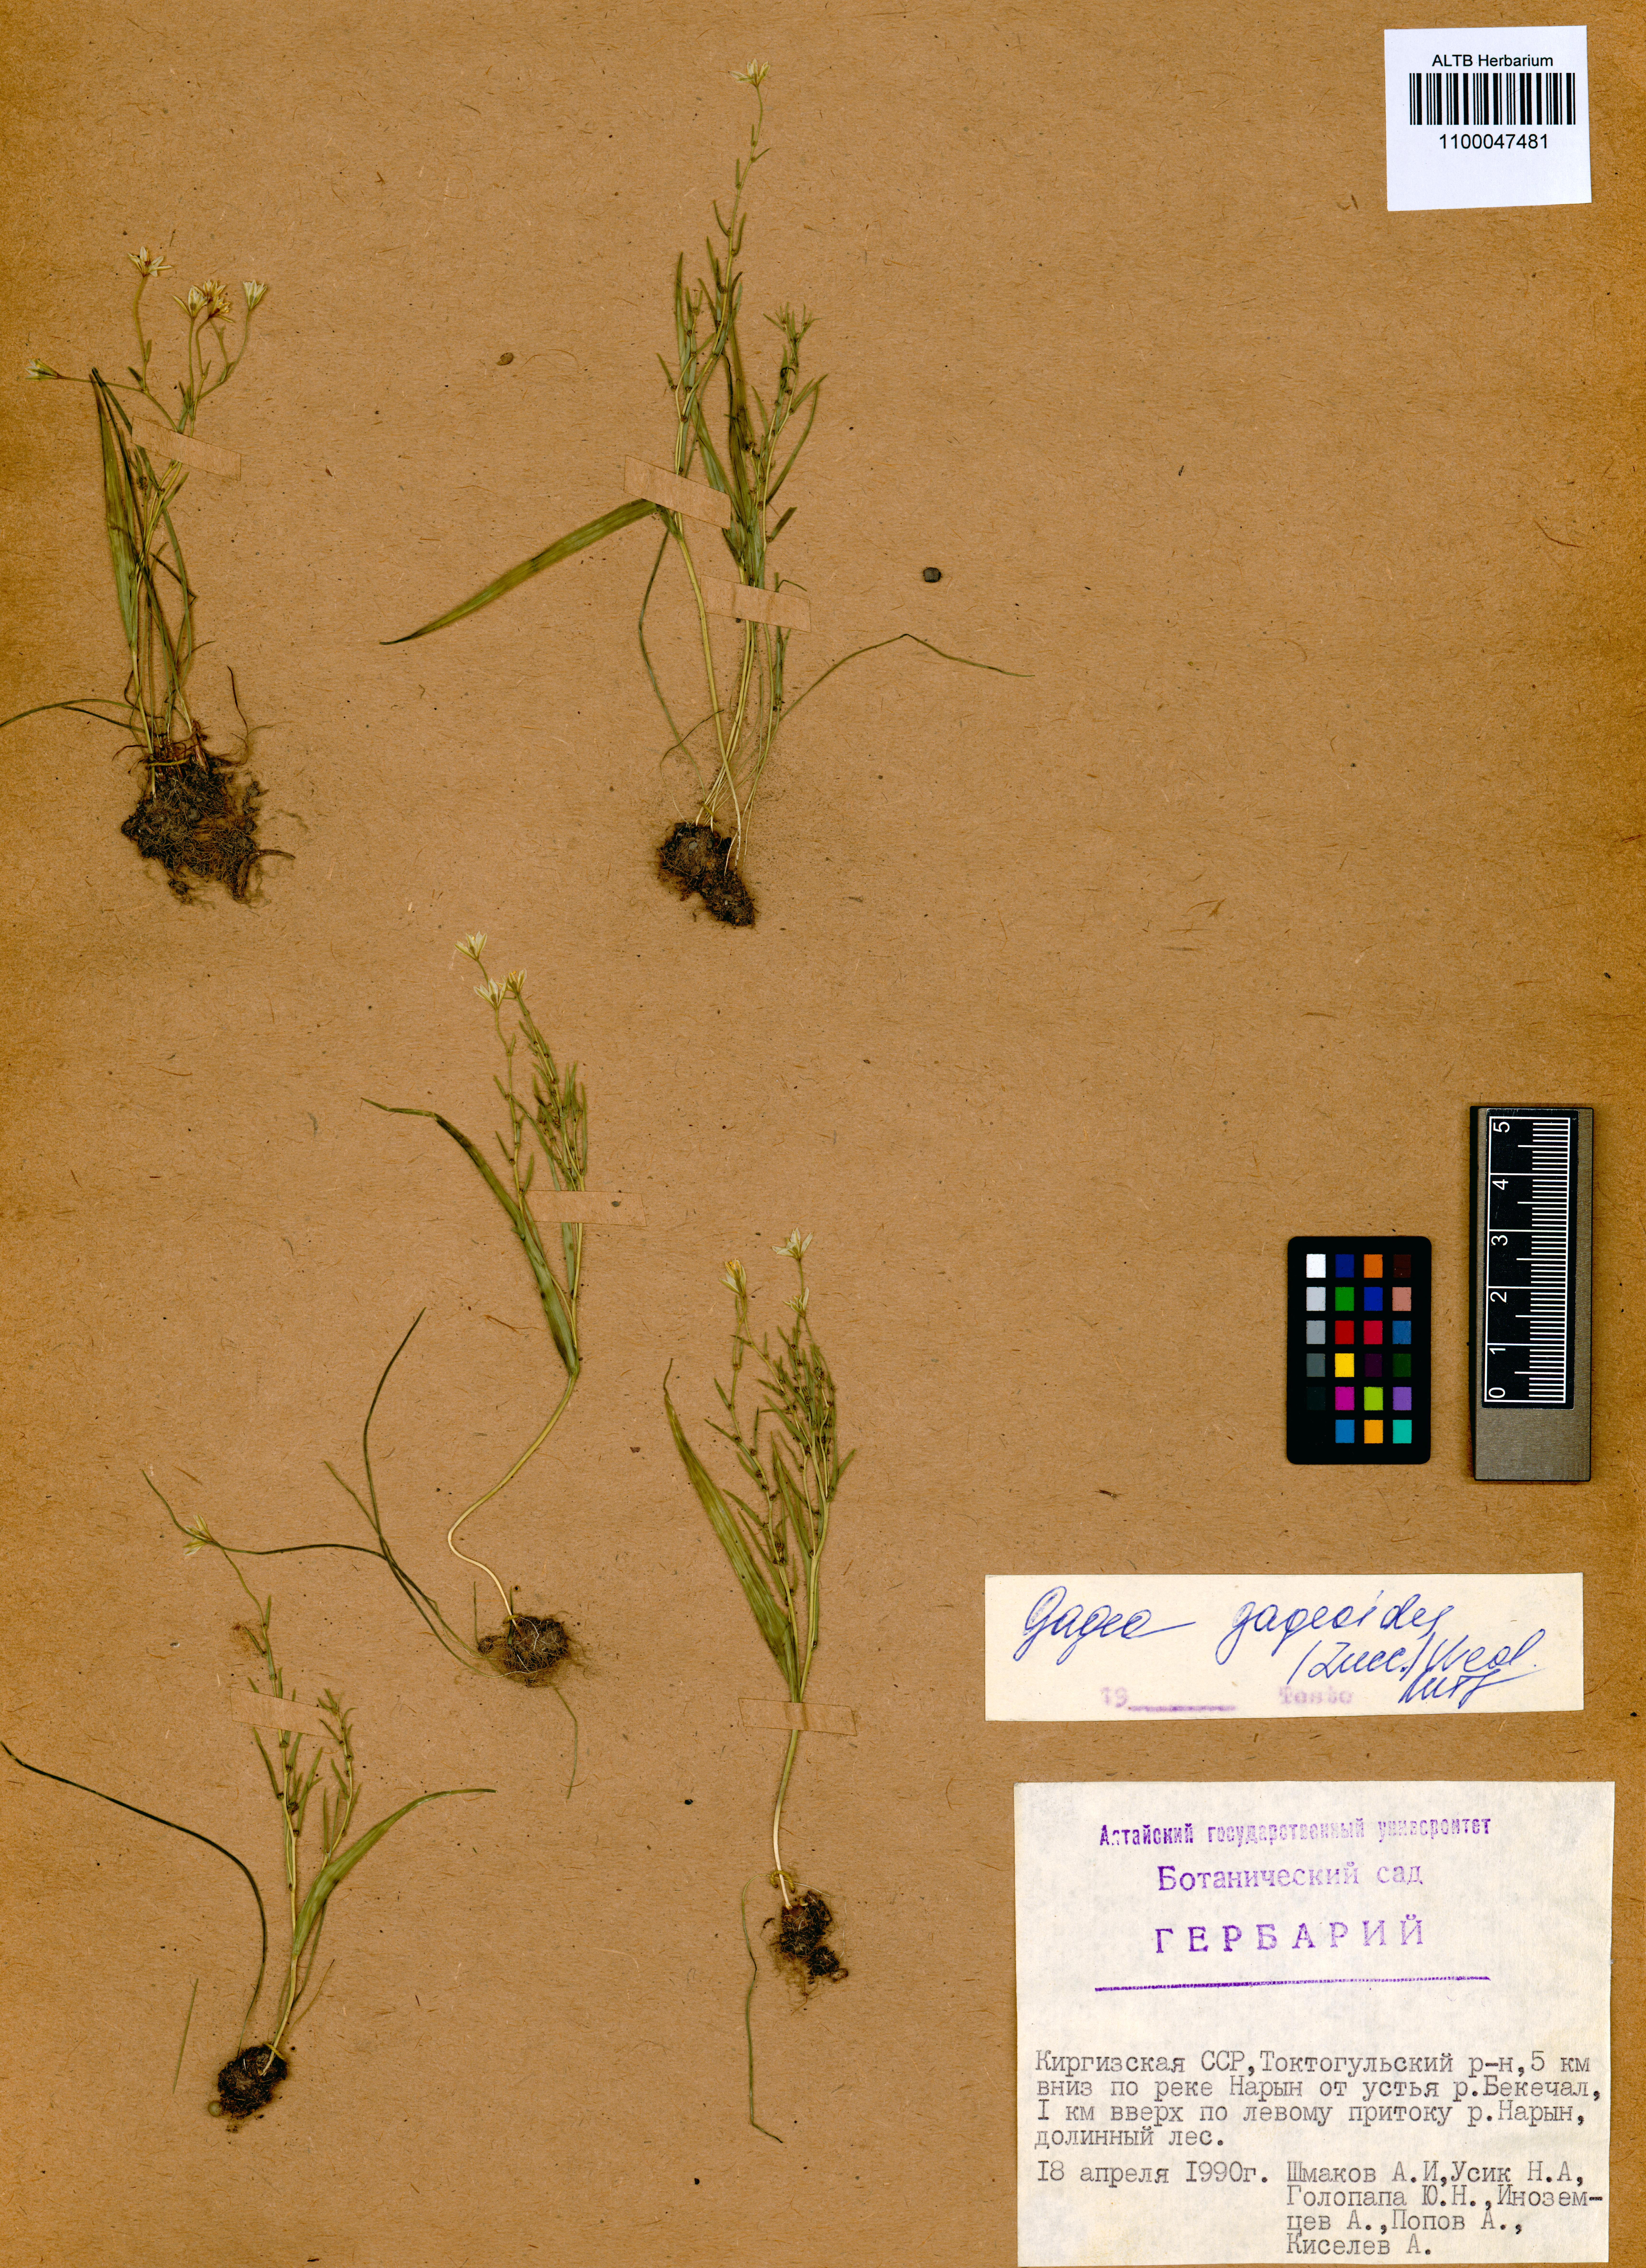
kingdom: Plantae
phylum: Tracheophyta
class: Liliopsida
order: Liliales
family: Liliaceae
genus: Gagea
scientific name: Gagea gageoides
